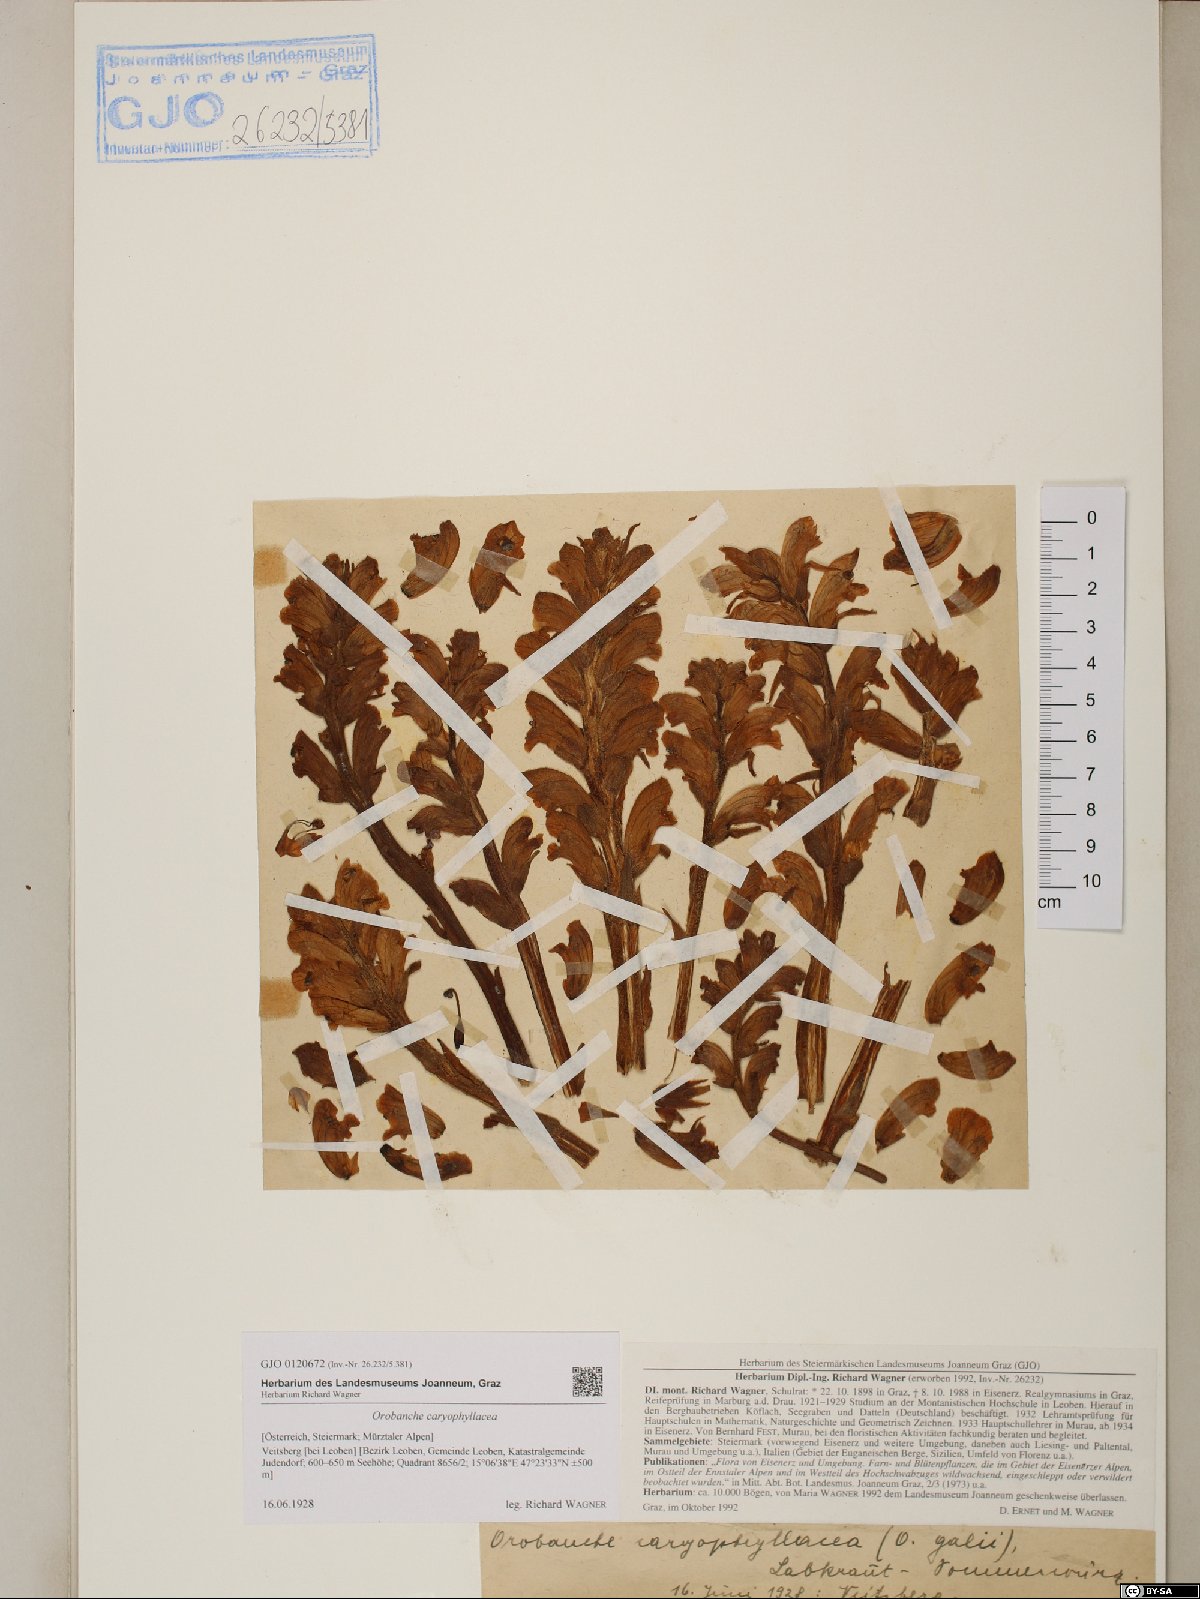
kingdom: Plantae
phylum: Tracheophyta
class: Magnoliopsida
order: Lamiales
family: Orobanchaceae
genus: Orobanche
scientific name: Orobanche caryophyllacea
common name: Bedstraw broomrape
